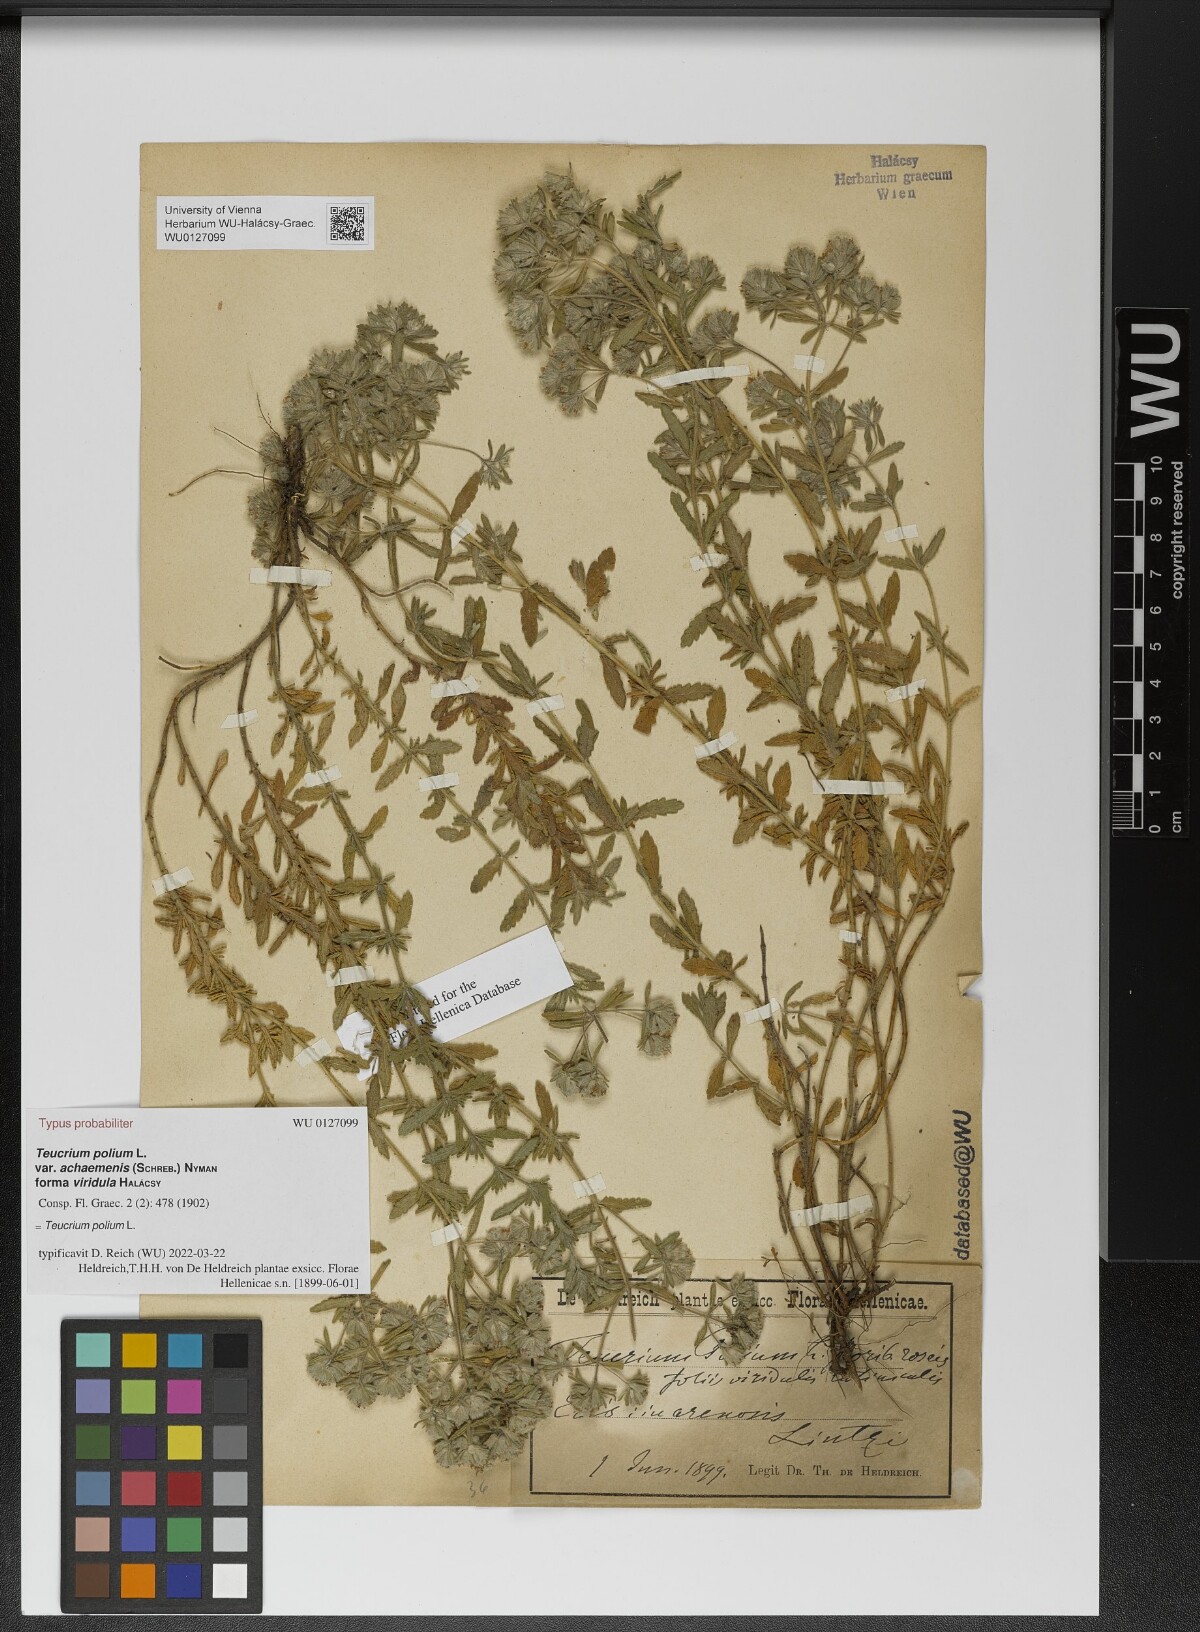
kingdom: Plantae
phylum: Tracheophyta
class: Magnoliopsida
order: Lamiales
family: Lamiaceae
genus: Teucrium
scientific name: Teucrium polium
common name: Poley
